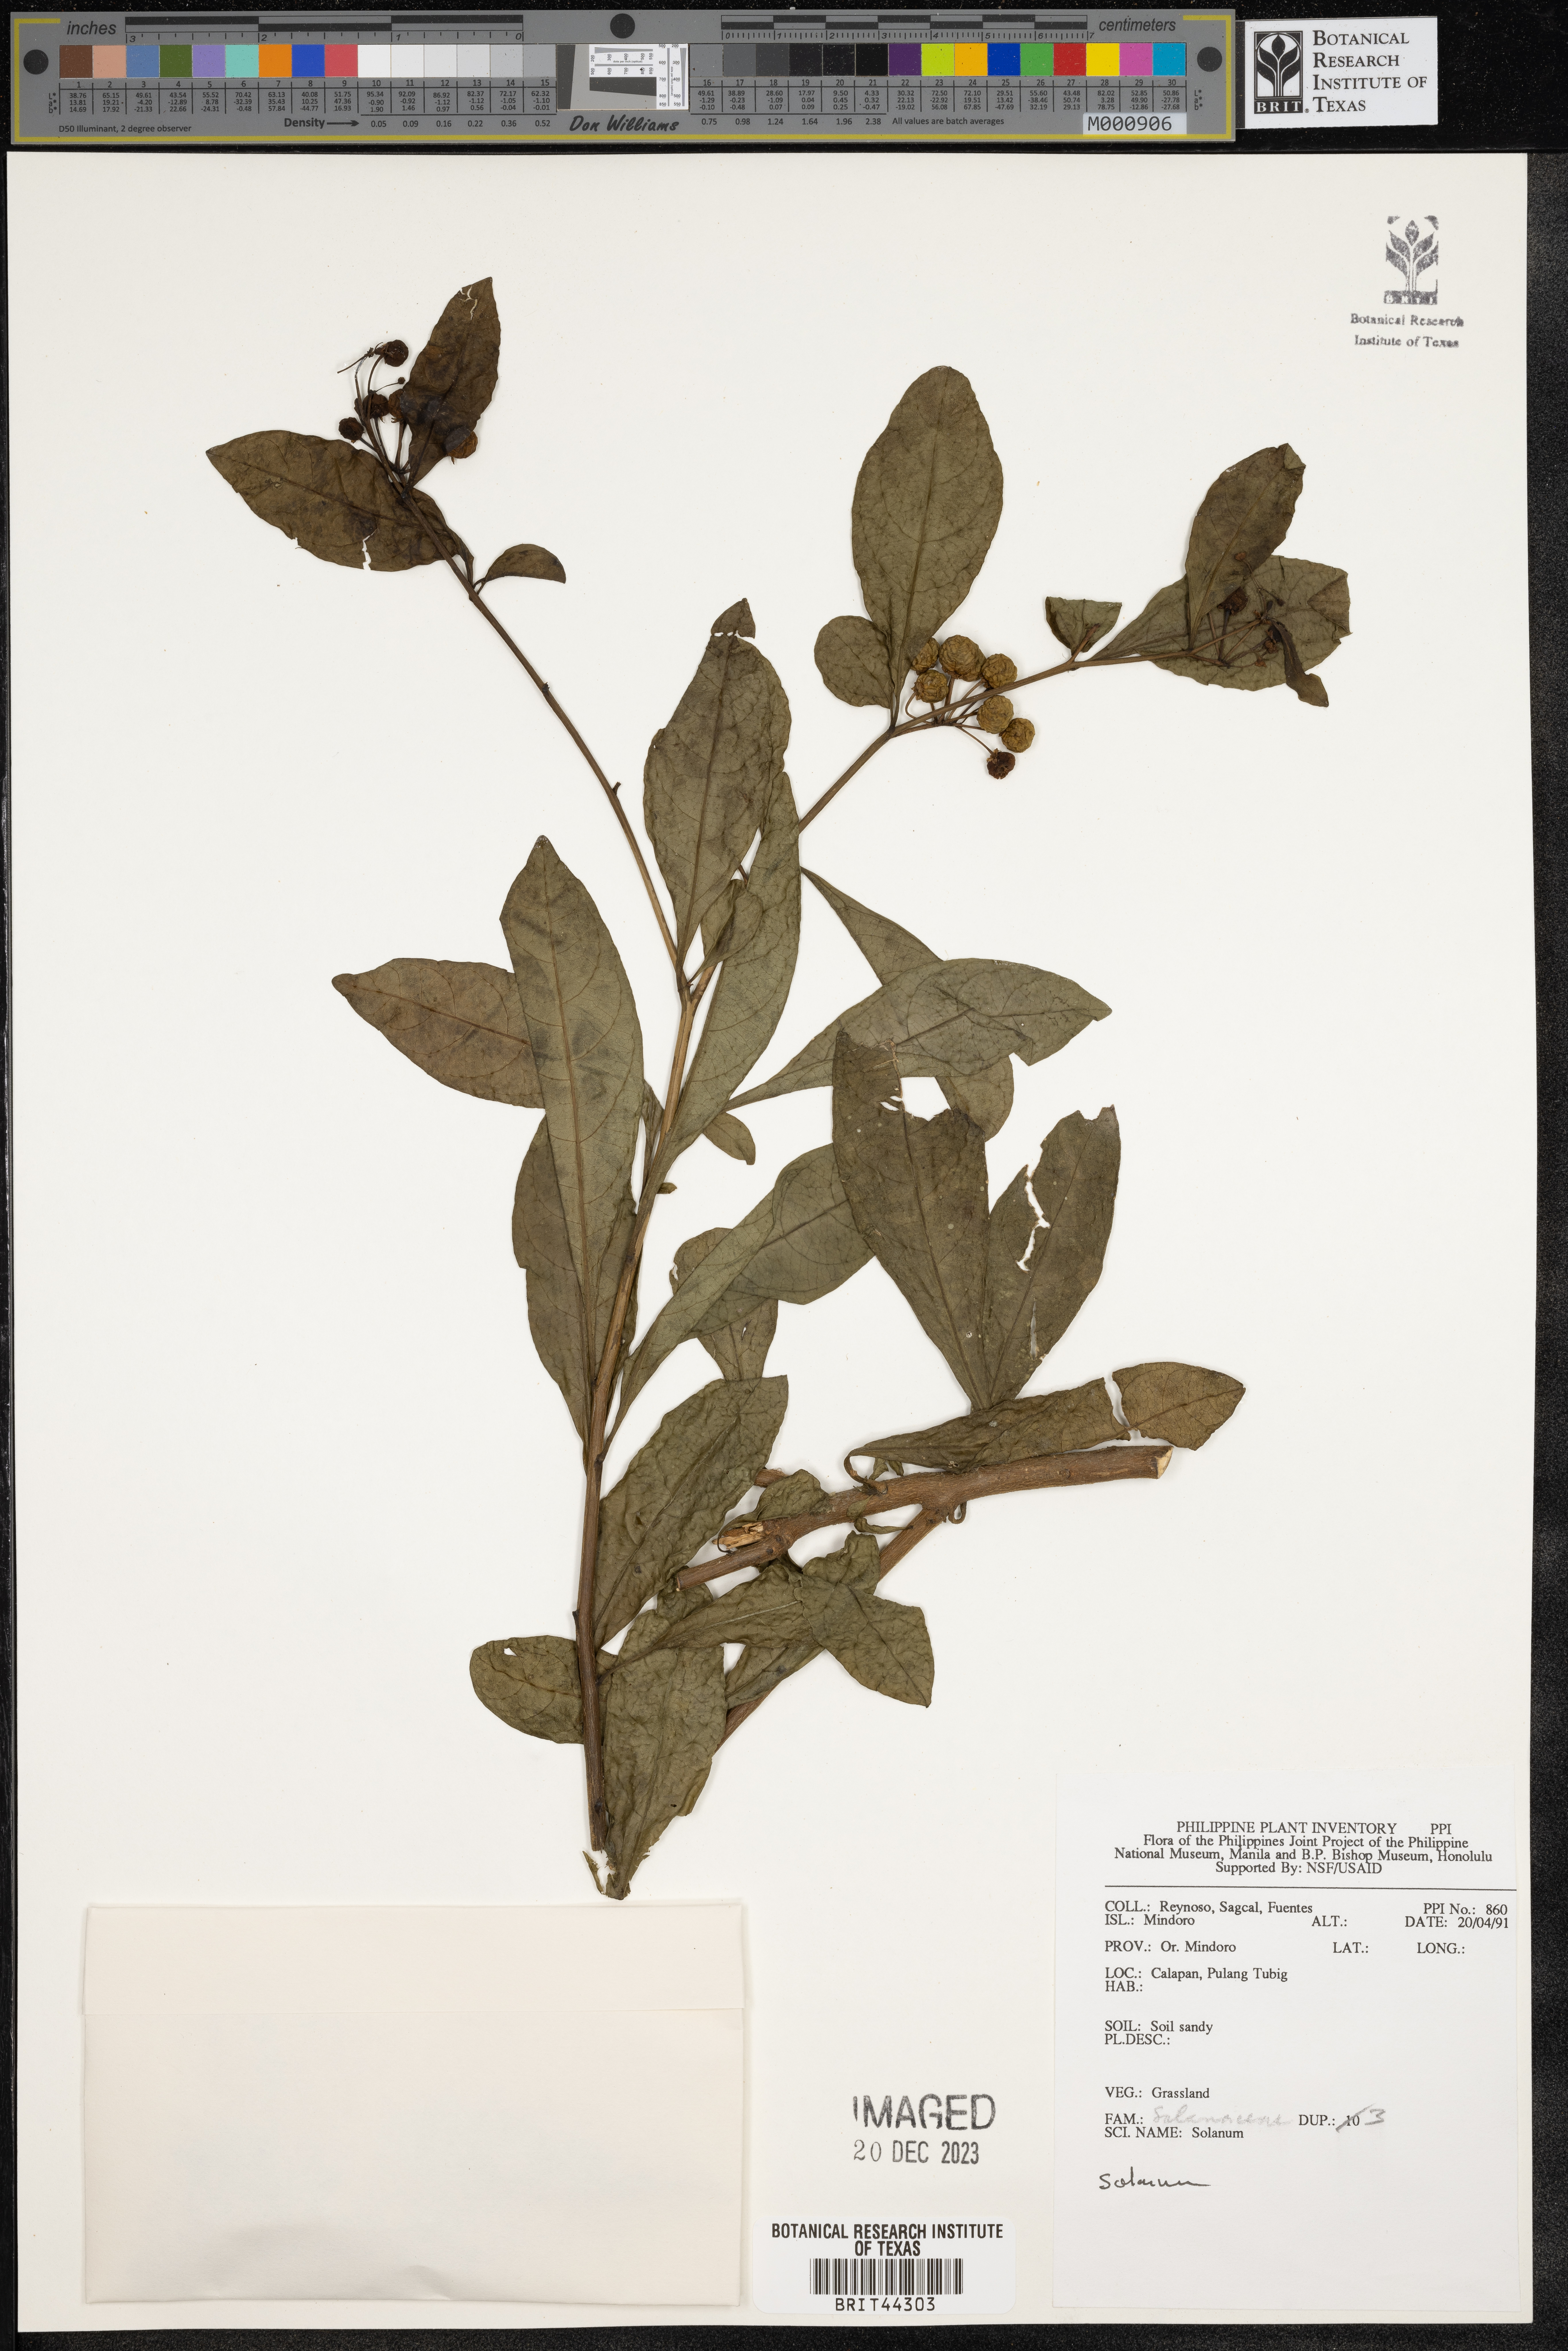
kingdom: Plantae
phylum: Tracheophyta
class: Magnoliopsida
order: Solanales
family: Solanaceae
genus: Solanum
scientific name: Solanum
